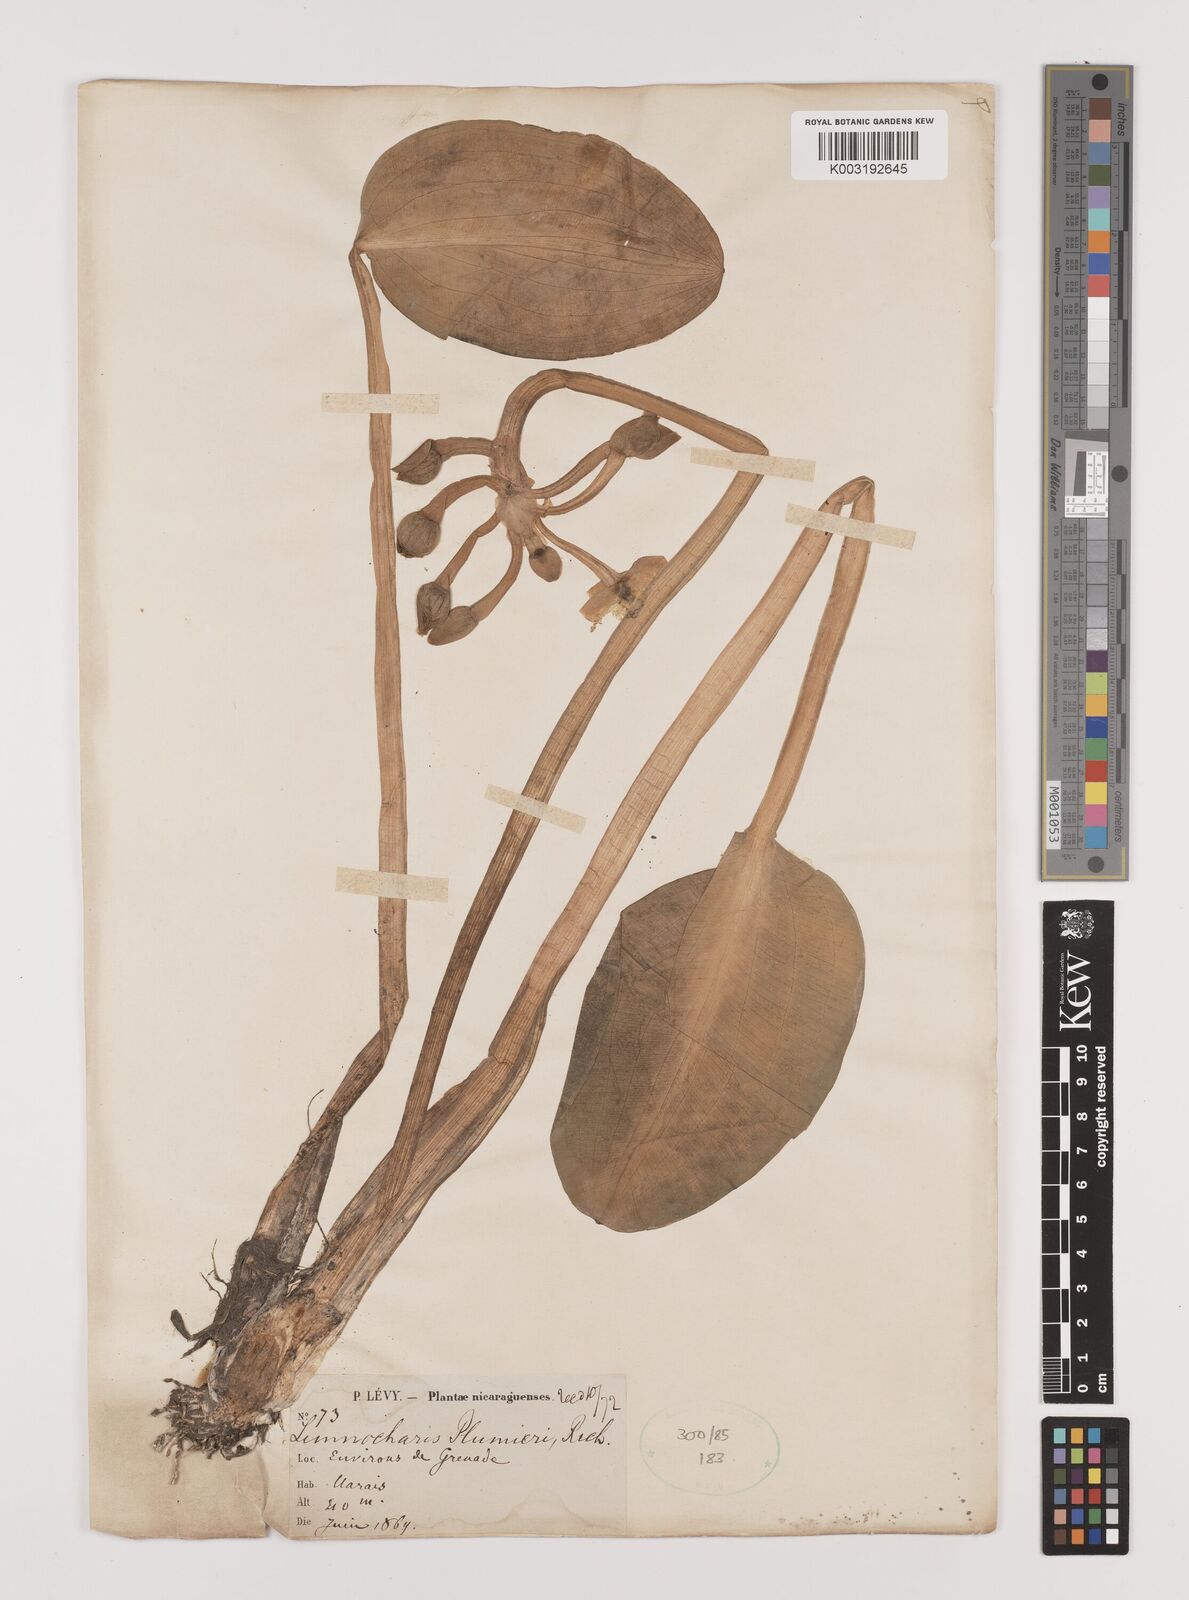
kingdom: Plantae
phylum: Tracheophyta
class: Liliopsida
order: Alismatales
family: Alismataceae
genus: Limnocharis
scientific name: Limnocharis flava
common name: Sawah-flower-rush
